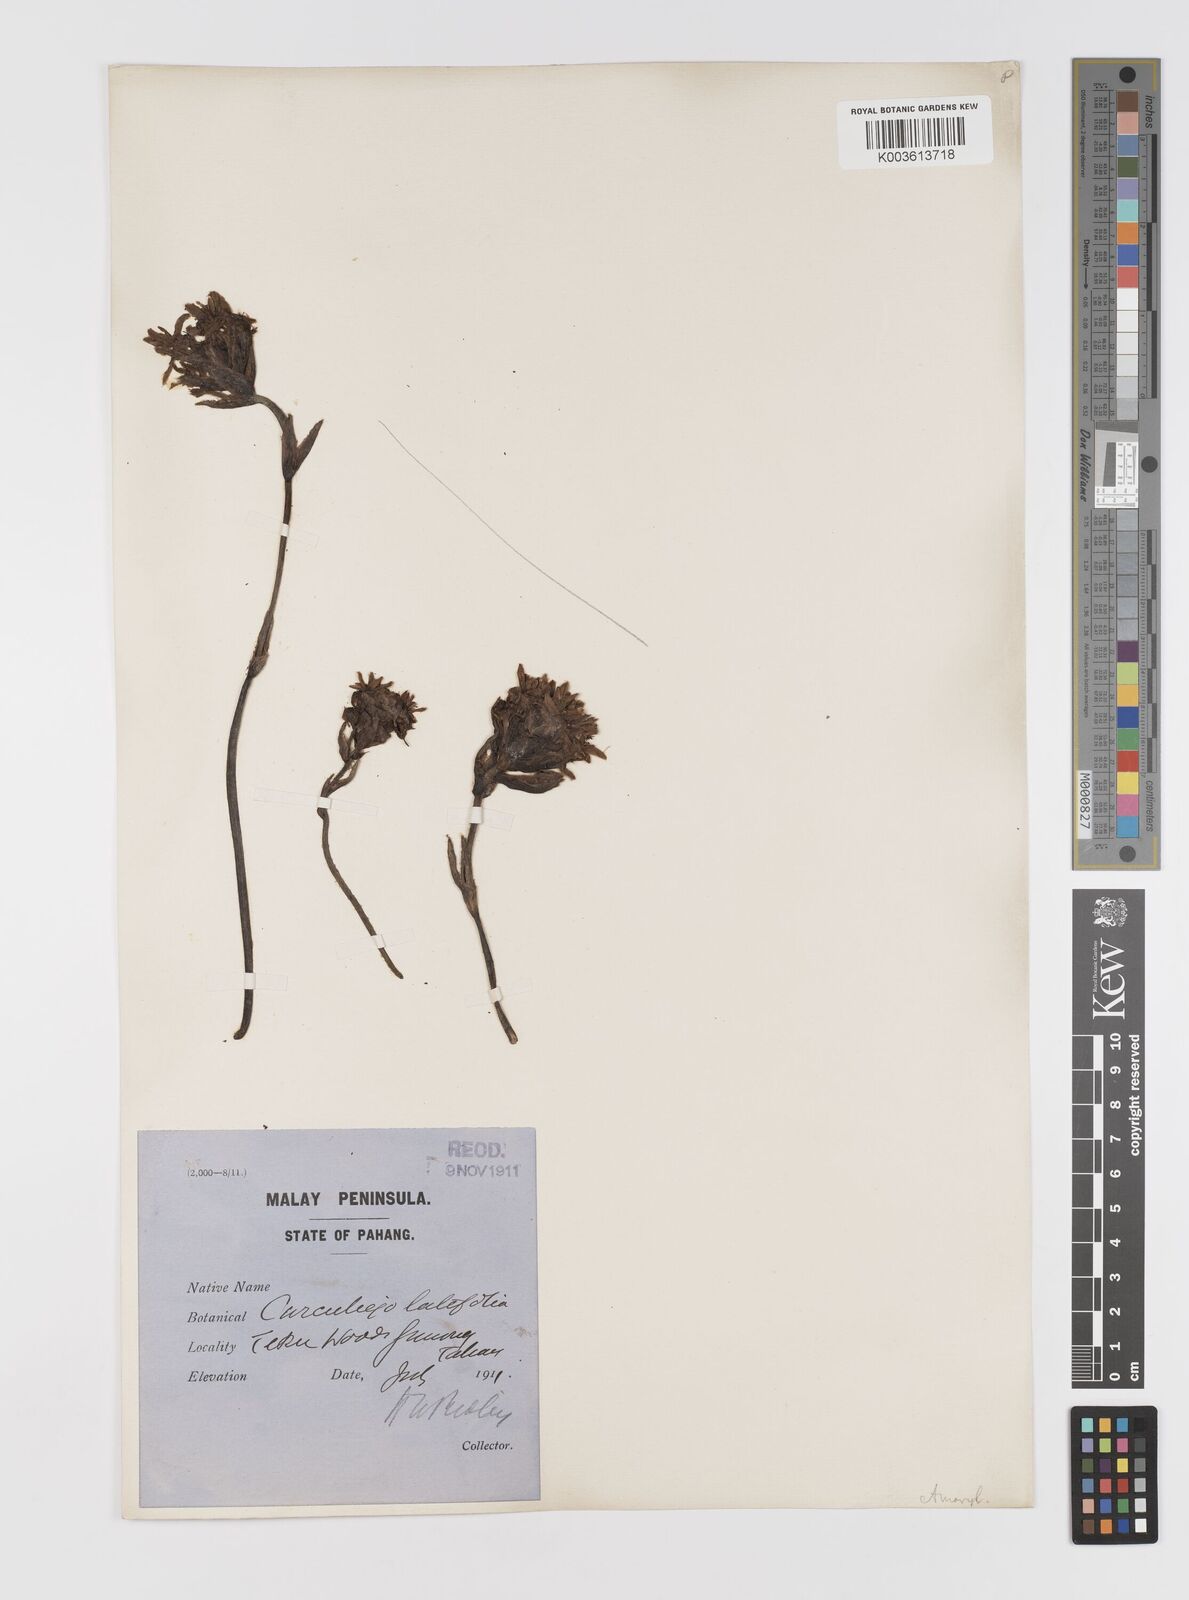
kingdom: Plantae
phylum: Tracheophyta
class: Liliopsida
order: Asparagales
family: Hypoxidaceae
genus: Curculigo
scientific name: Curculigo latifolia
